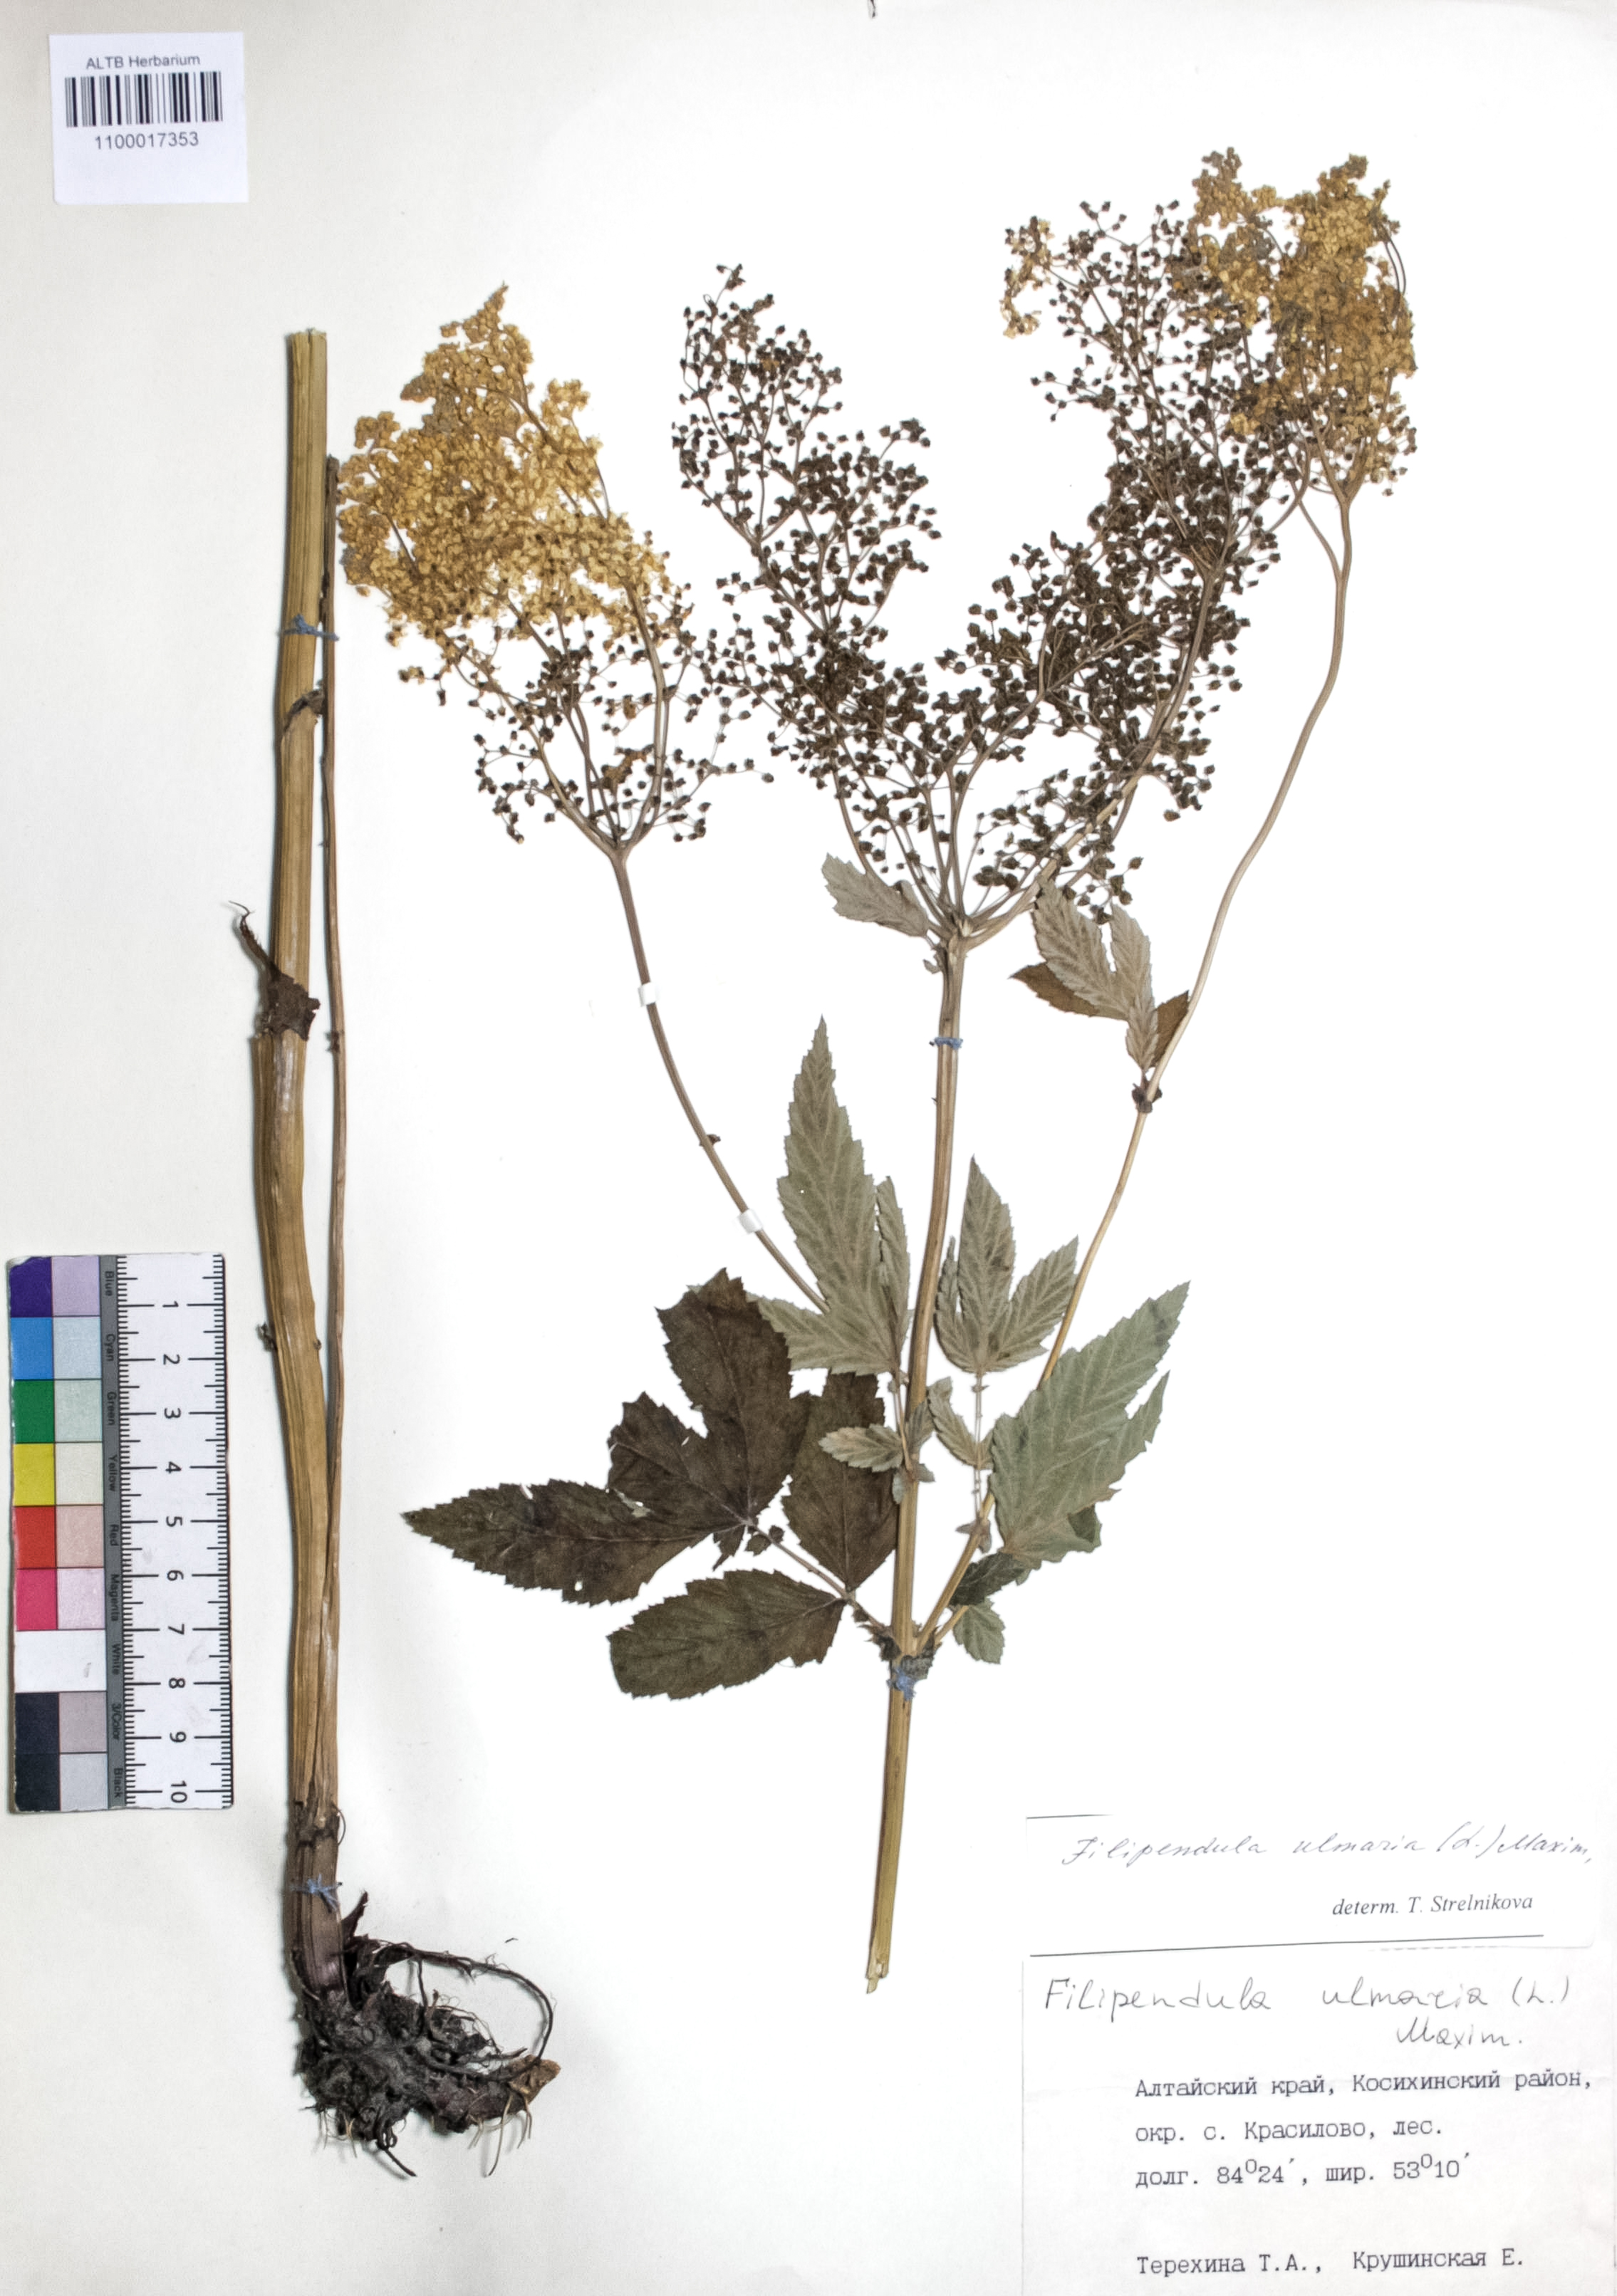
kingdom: Plantae
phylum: Tracheophyta
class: Magnoliopsida
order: Rosales
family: Rosaceae
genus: Filipendula
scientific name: Filipendula ulmaria
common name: Meadowsweet
